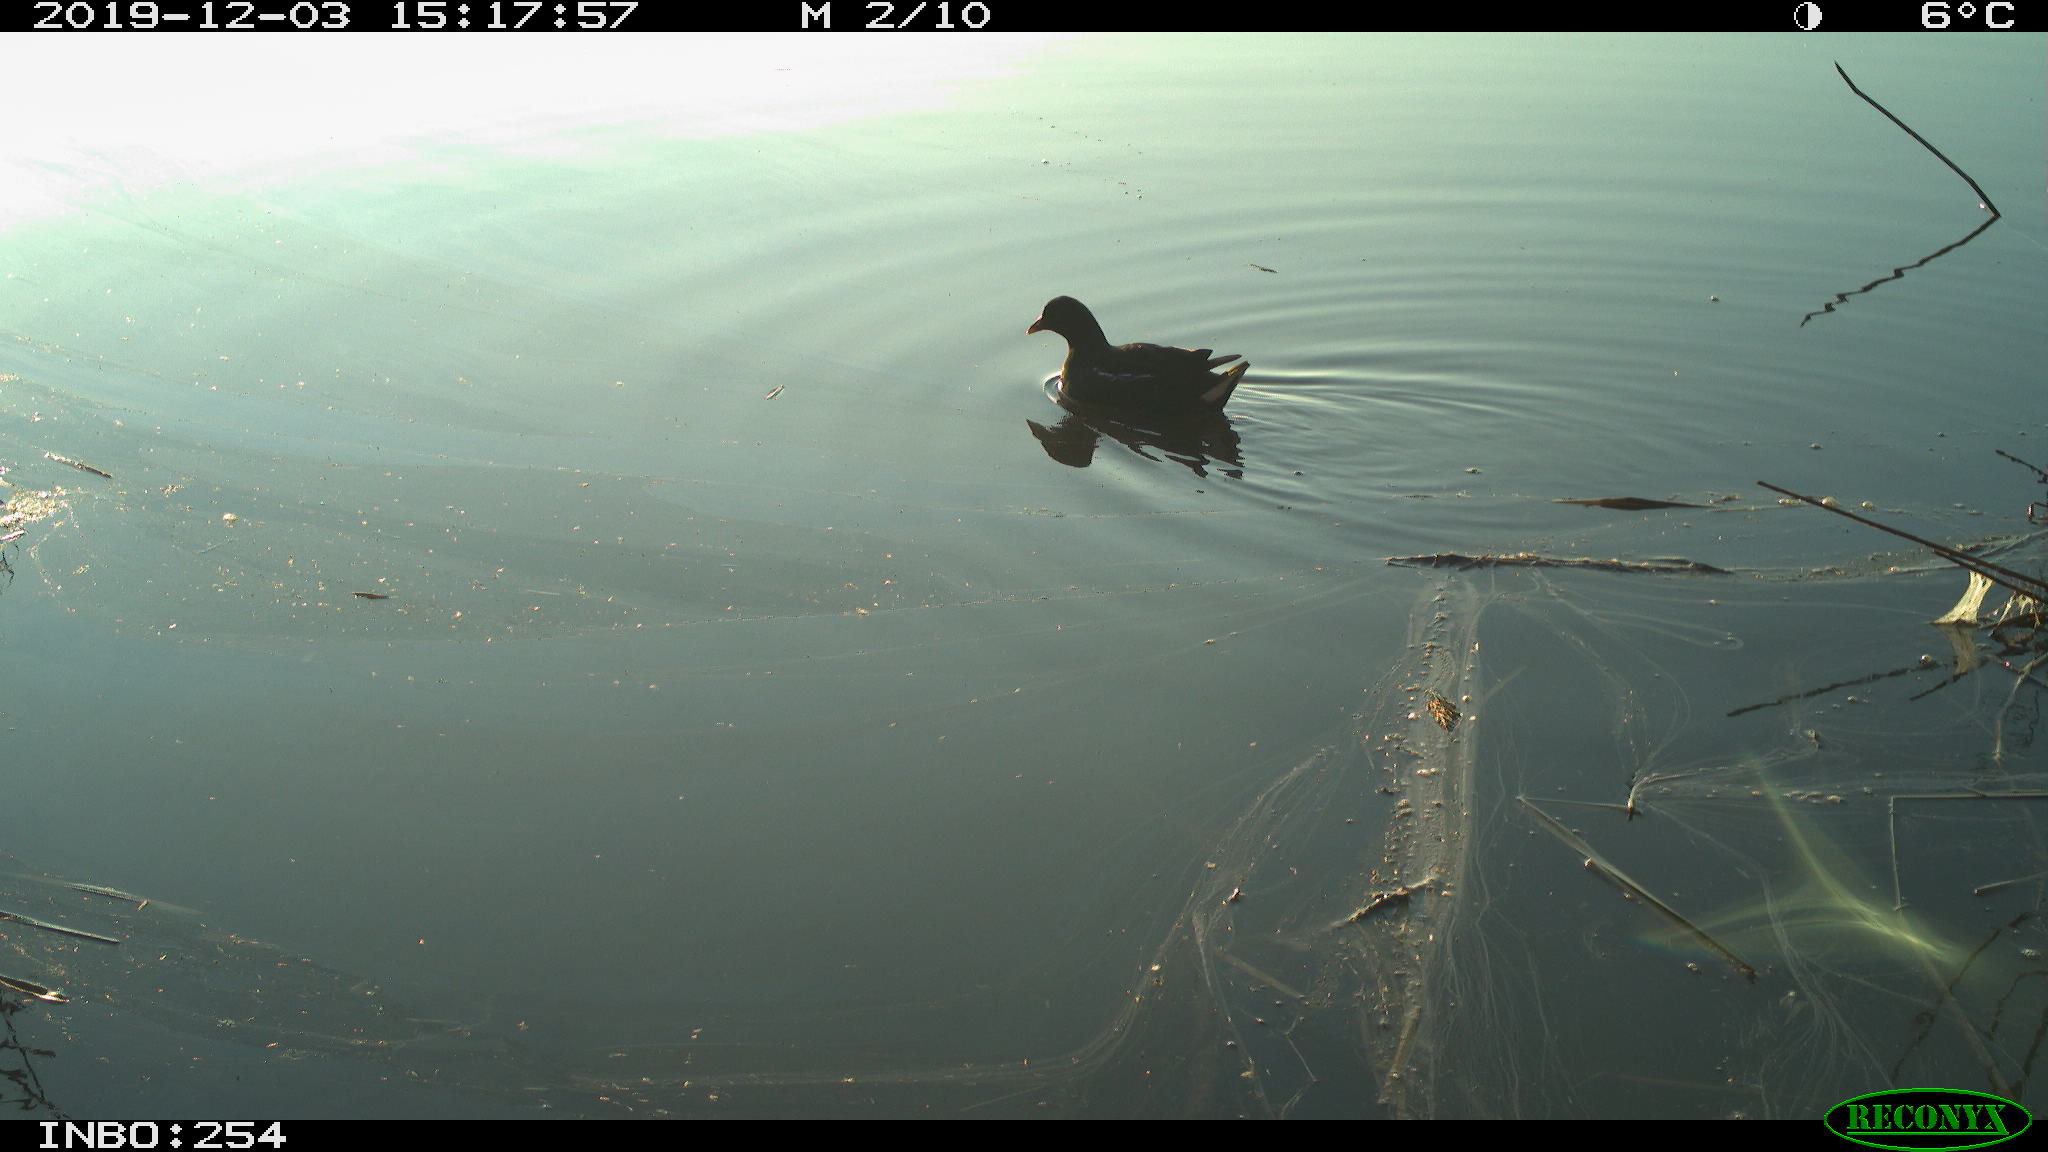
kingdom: Animalia
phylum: Chordata
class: Aves
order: Gruiformes
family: Rallidae
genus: Gallinula
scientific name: Gallinula chloropus
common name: Common moorhen
